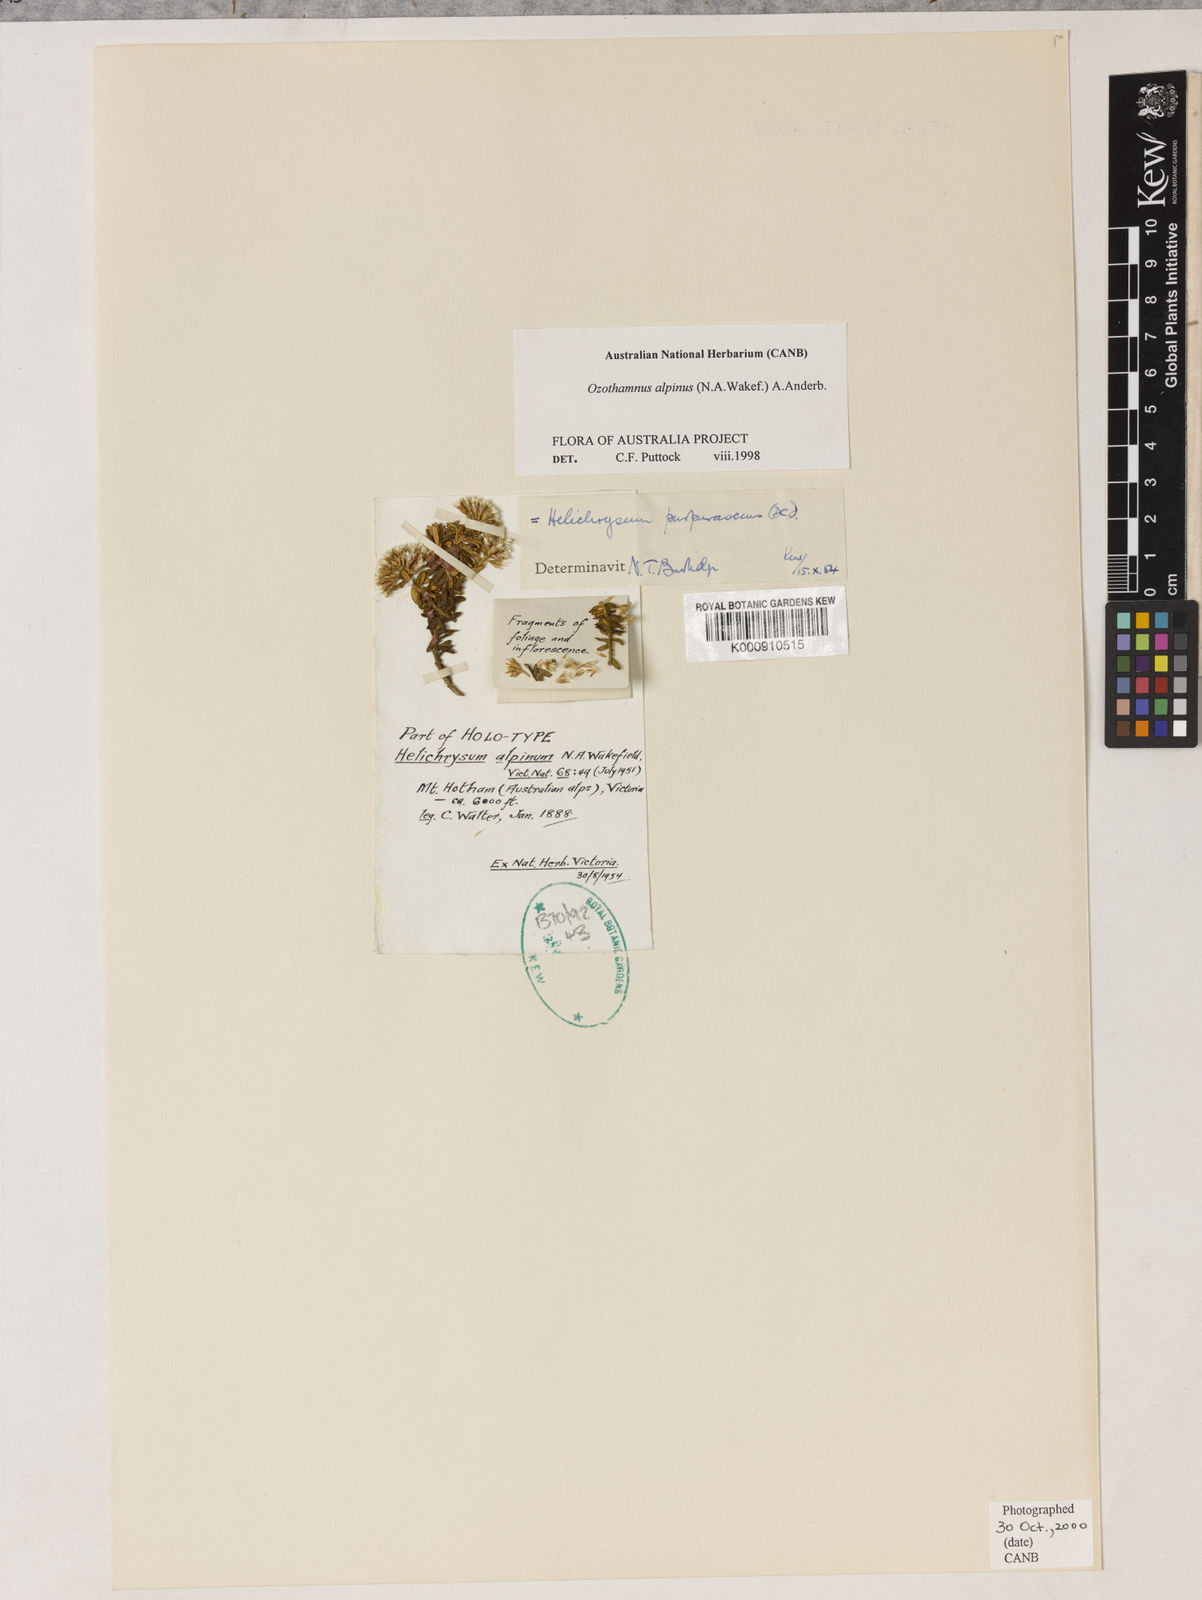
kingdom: Plantae
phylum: Tracheophyta
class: Magnoliopsida
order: Asterales
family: Asteraceae
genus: Ozothamnus
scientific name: Ozothamnus alpinus
